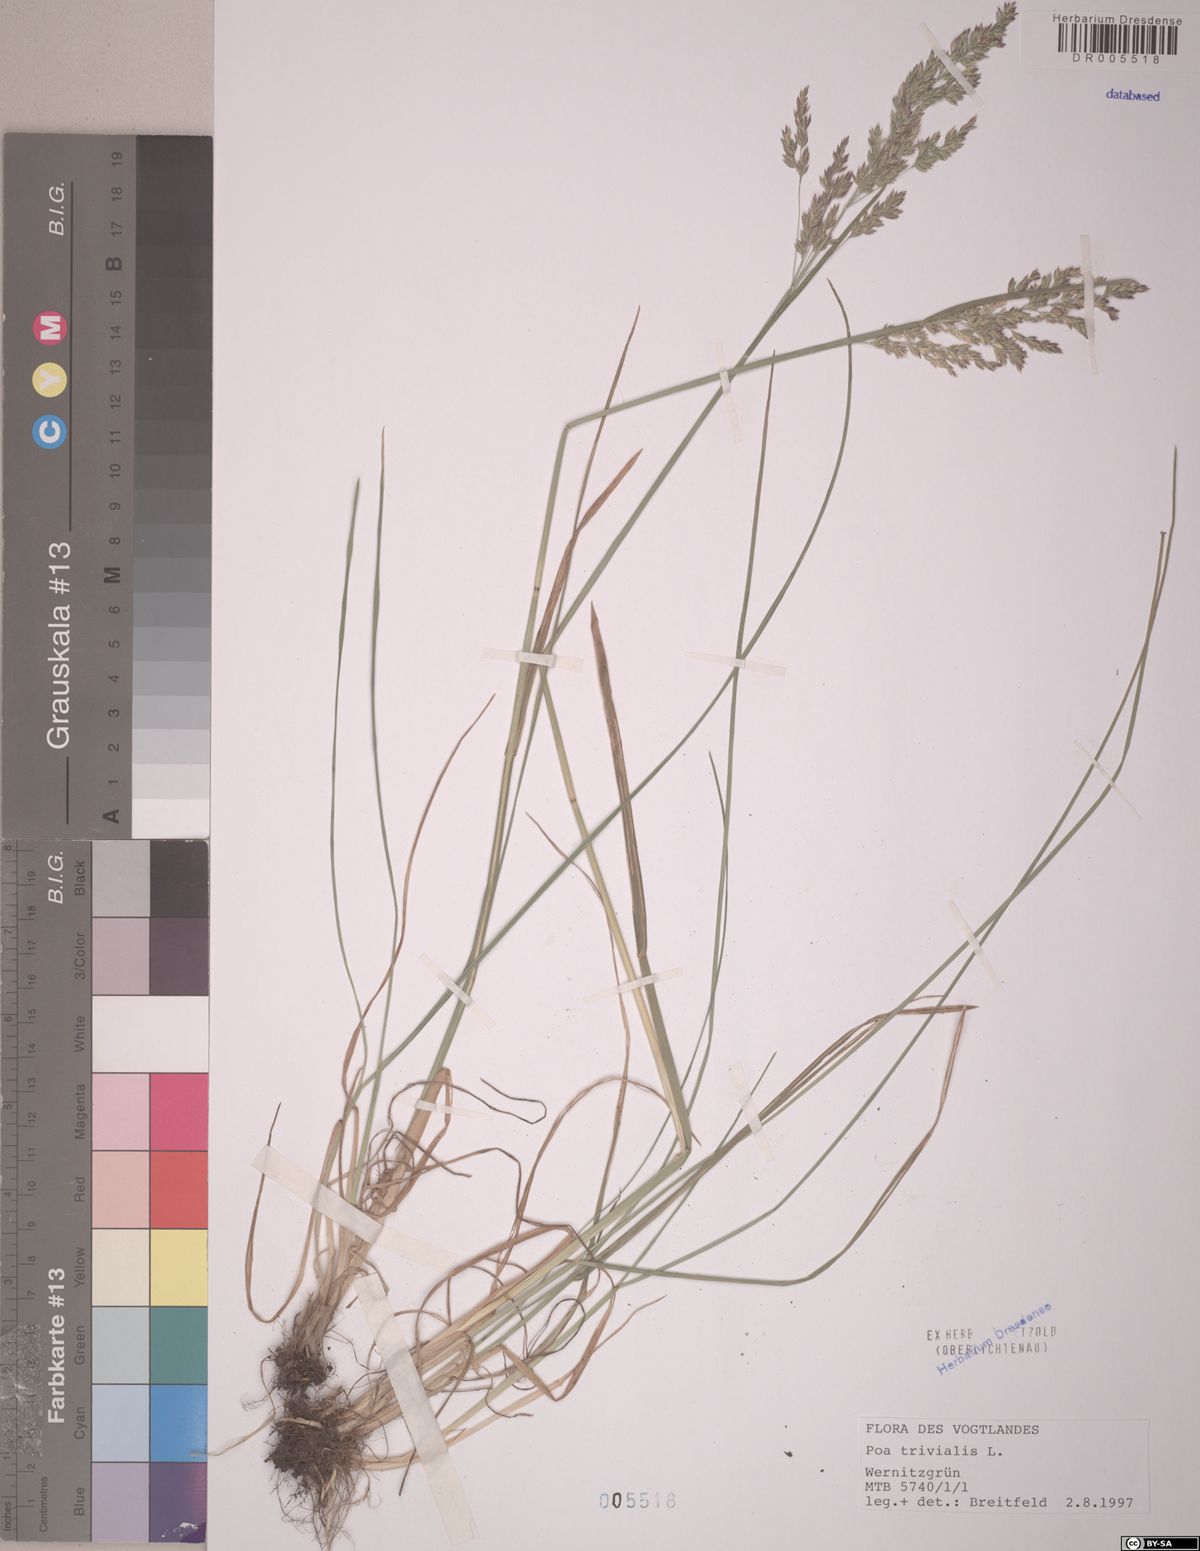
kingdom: Plantae
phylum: Tracheophyta
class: Liliopsida
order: Poales
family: Poaceae
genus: Poa
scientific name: Poa trivialis
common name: Rough bluegrass
